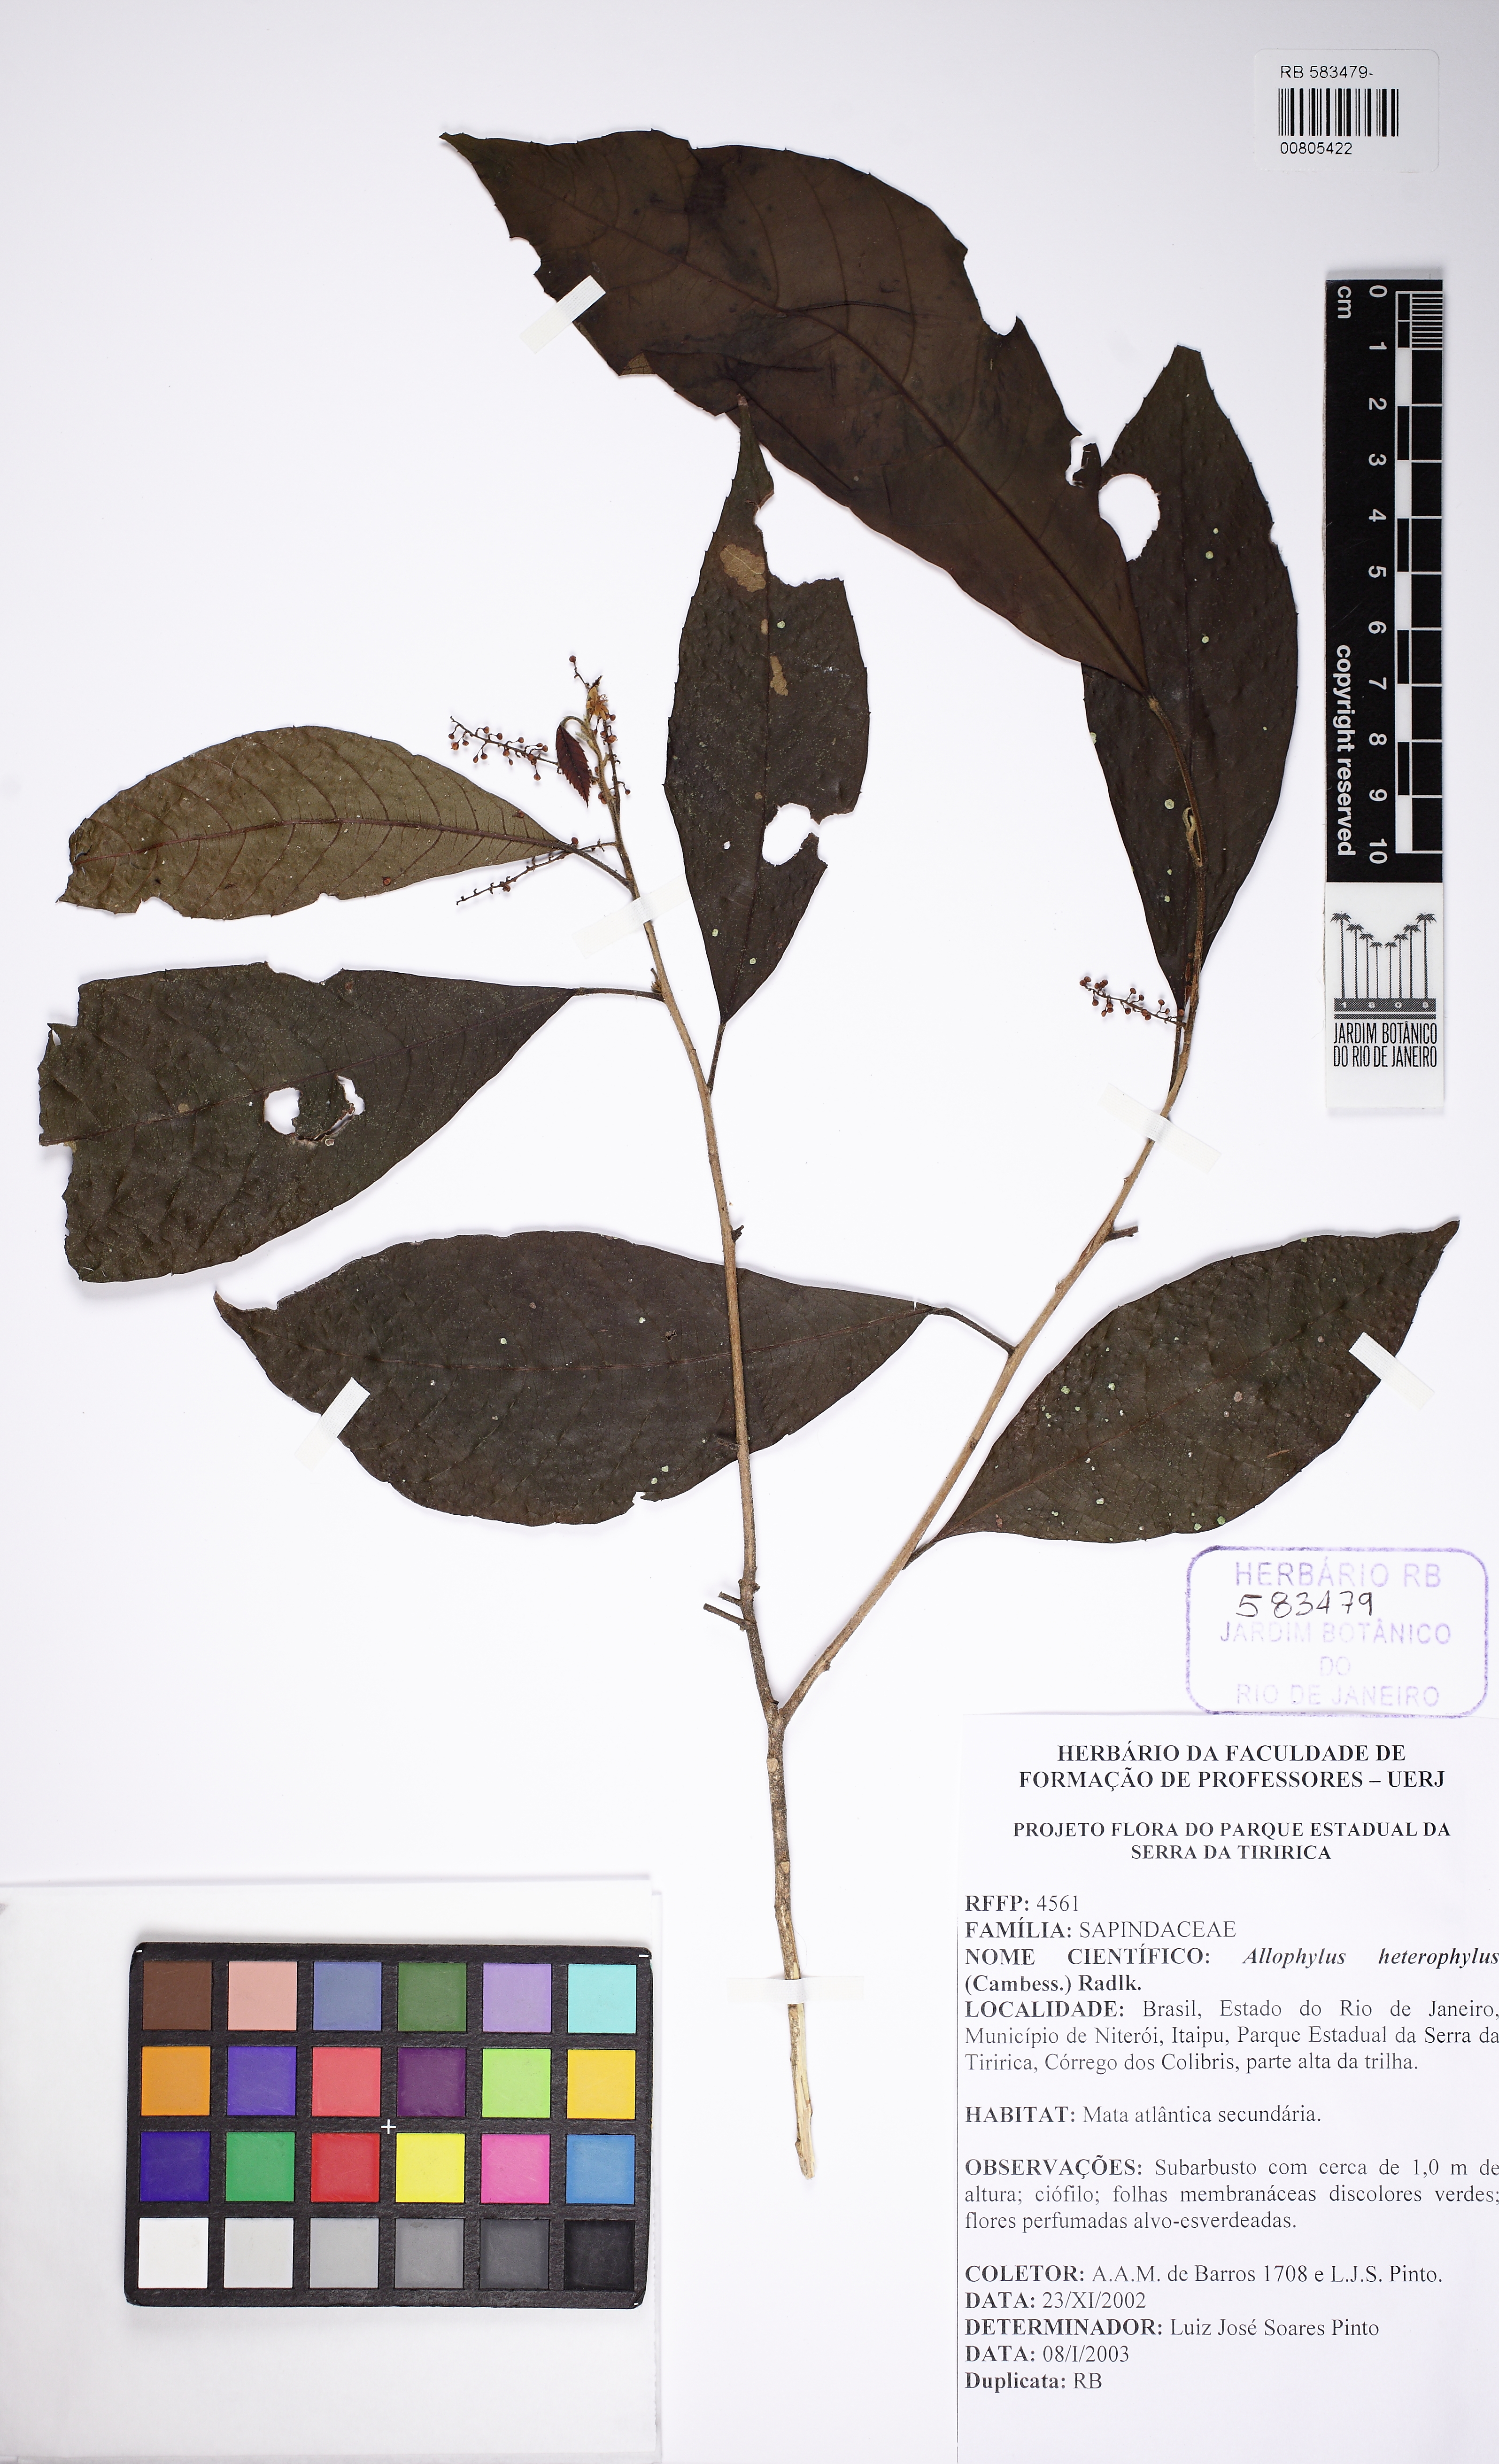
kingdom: Plantae
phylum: Tracheophyta
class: Magnoliopsida
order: Sapindales
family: Sapindaceae
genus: Allophylus
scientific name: Allophylus leucoclados
